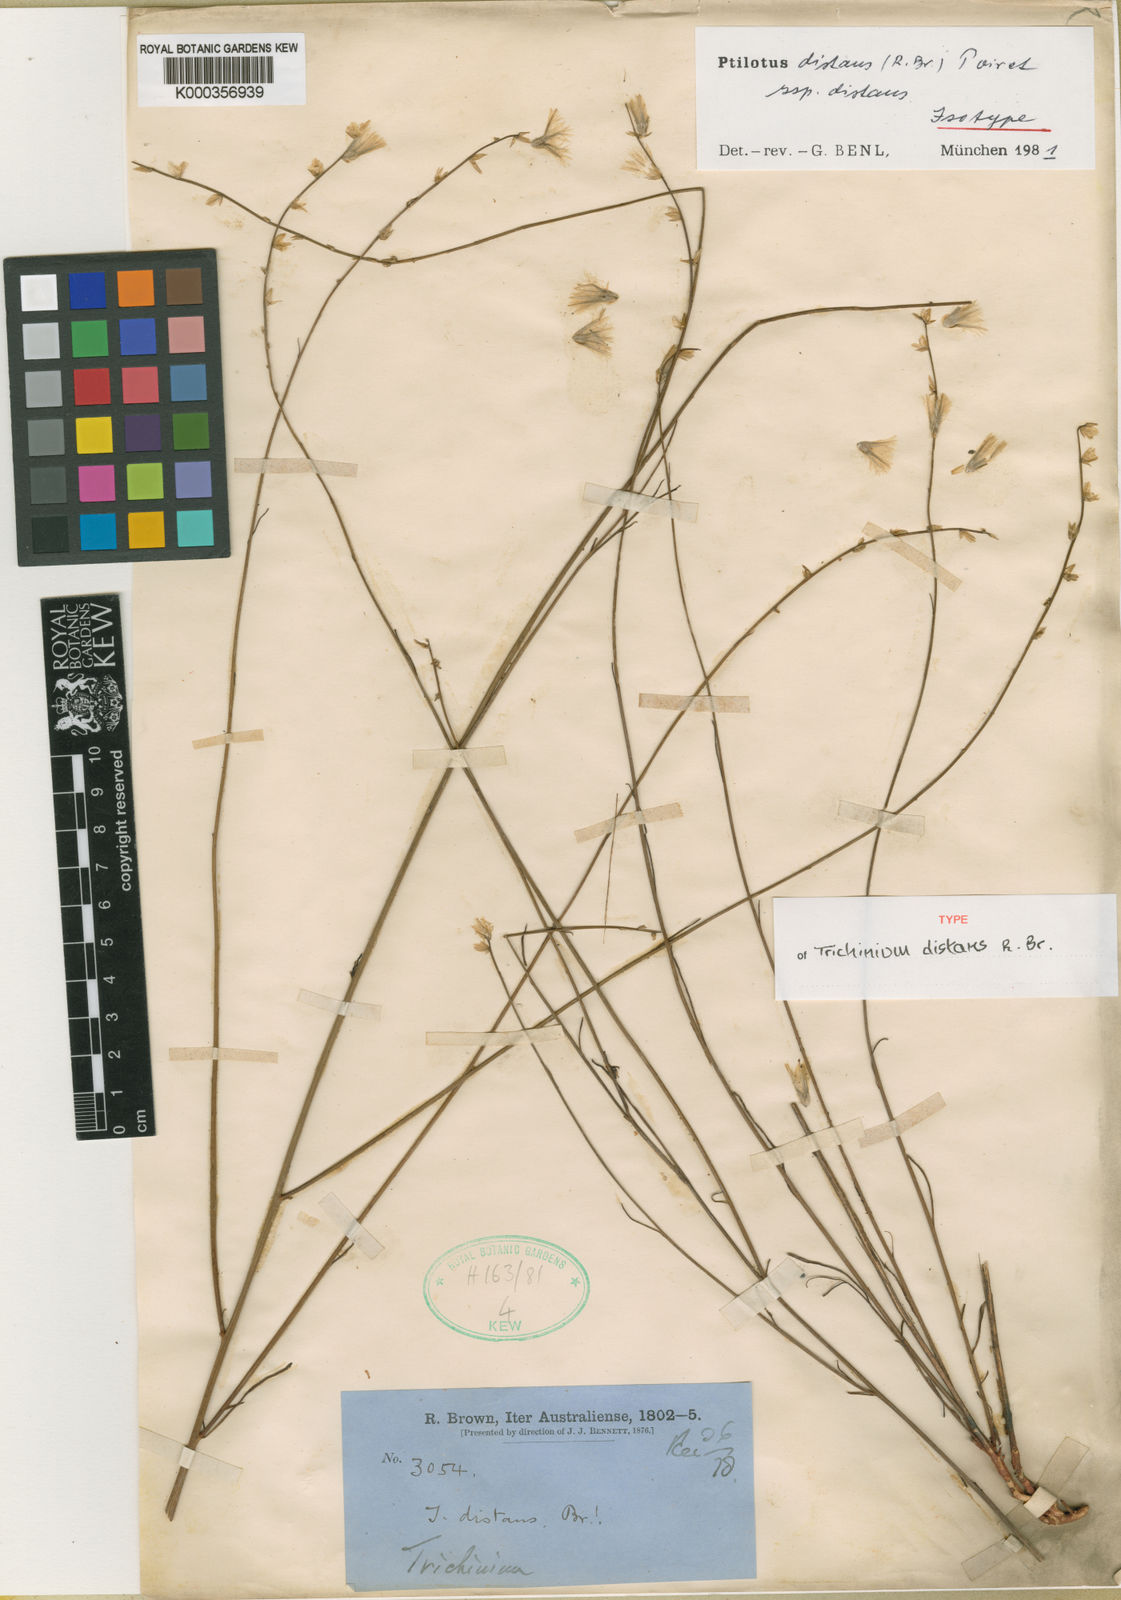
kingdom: Plantae
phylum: Tracheophyta
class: Magnoliopsida
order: Caryophyllales
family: Amaranthaceae
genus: Ptilotus
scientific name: Ptilotus
